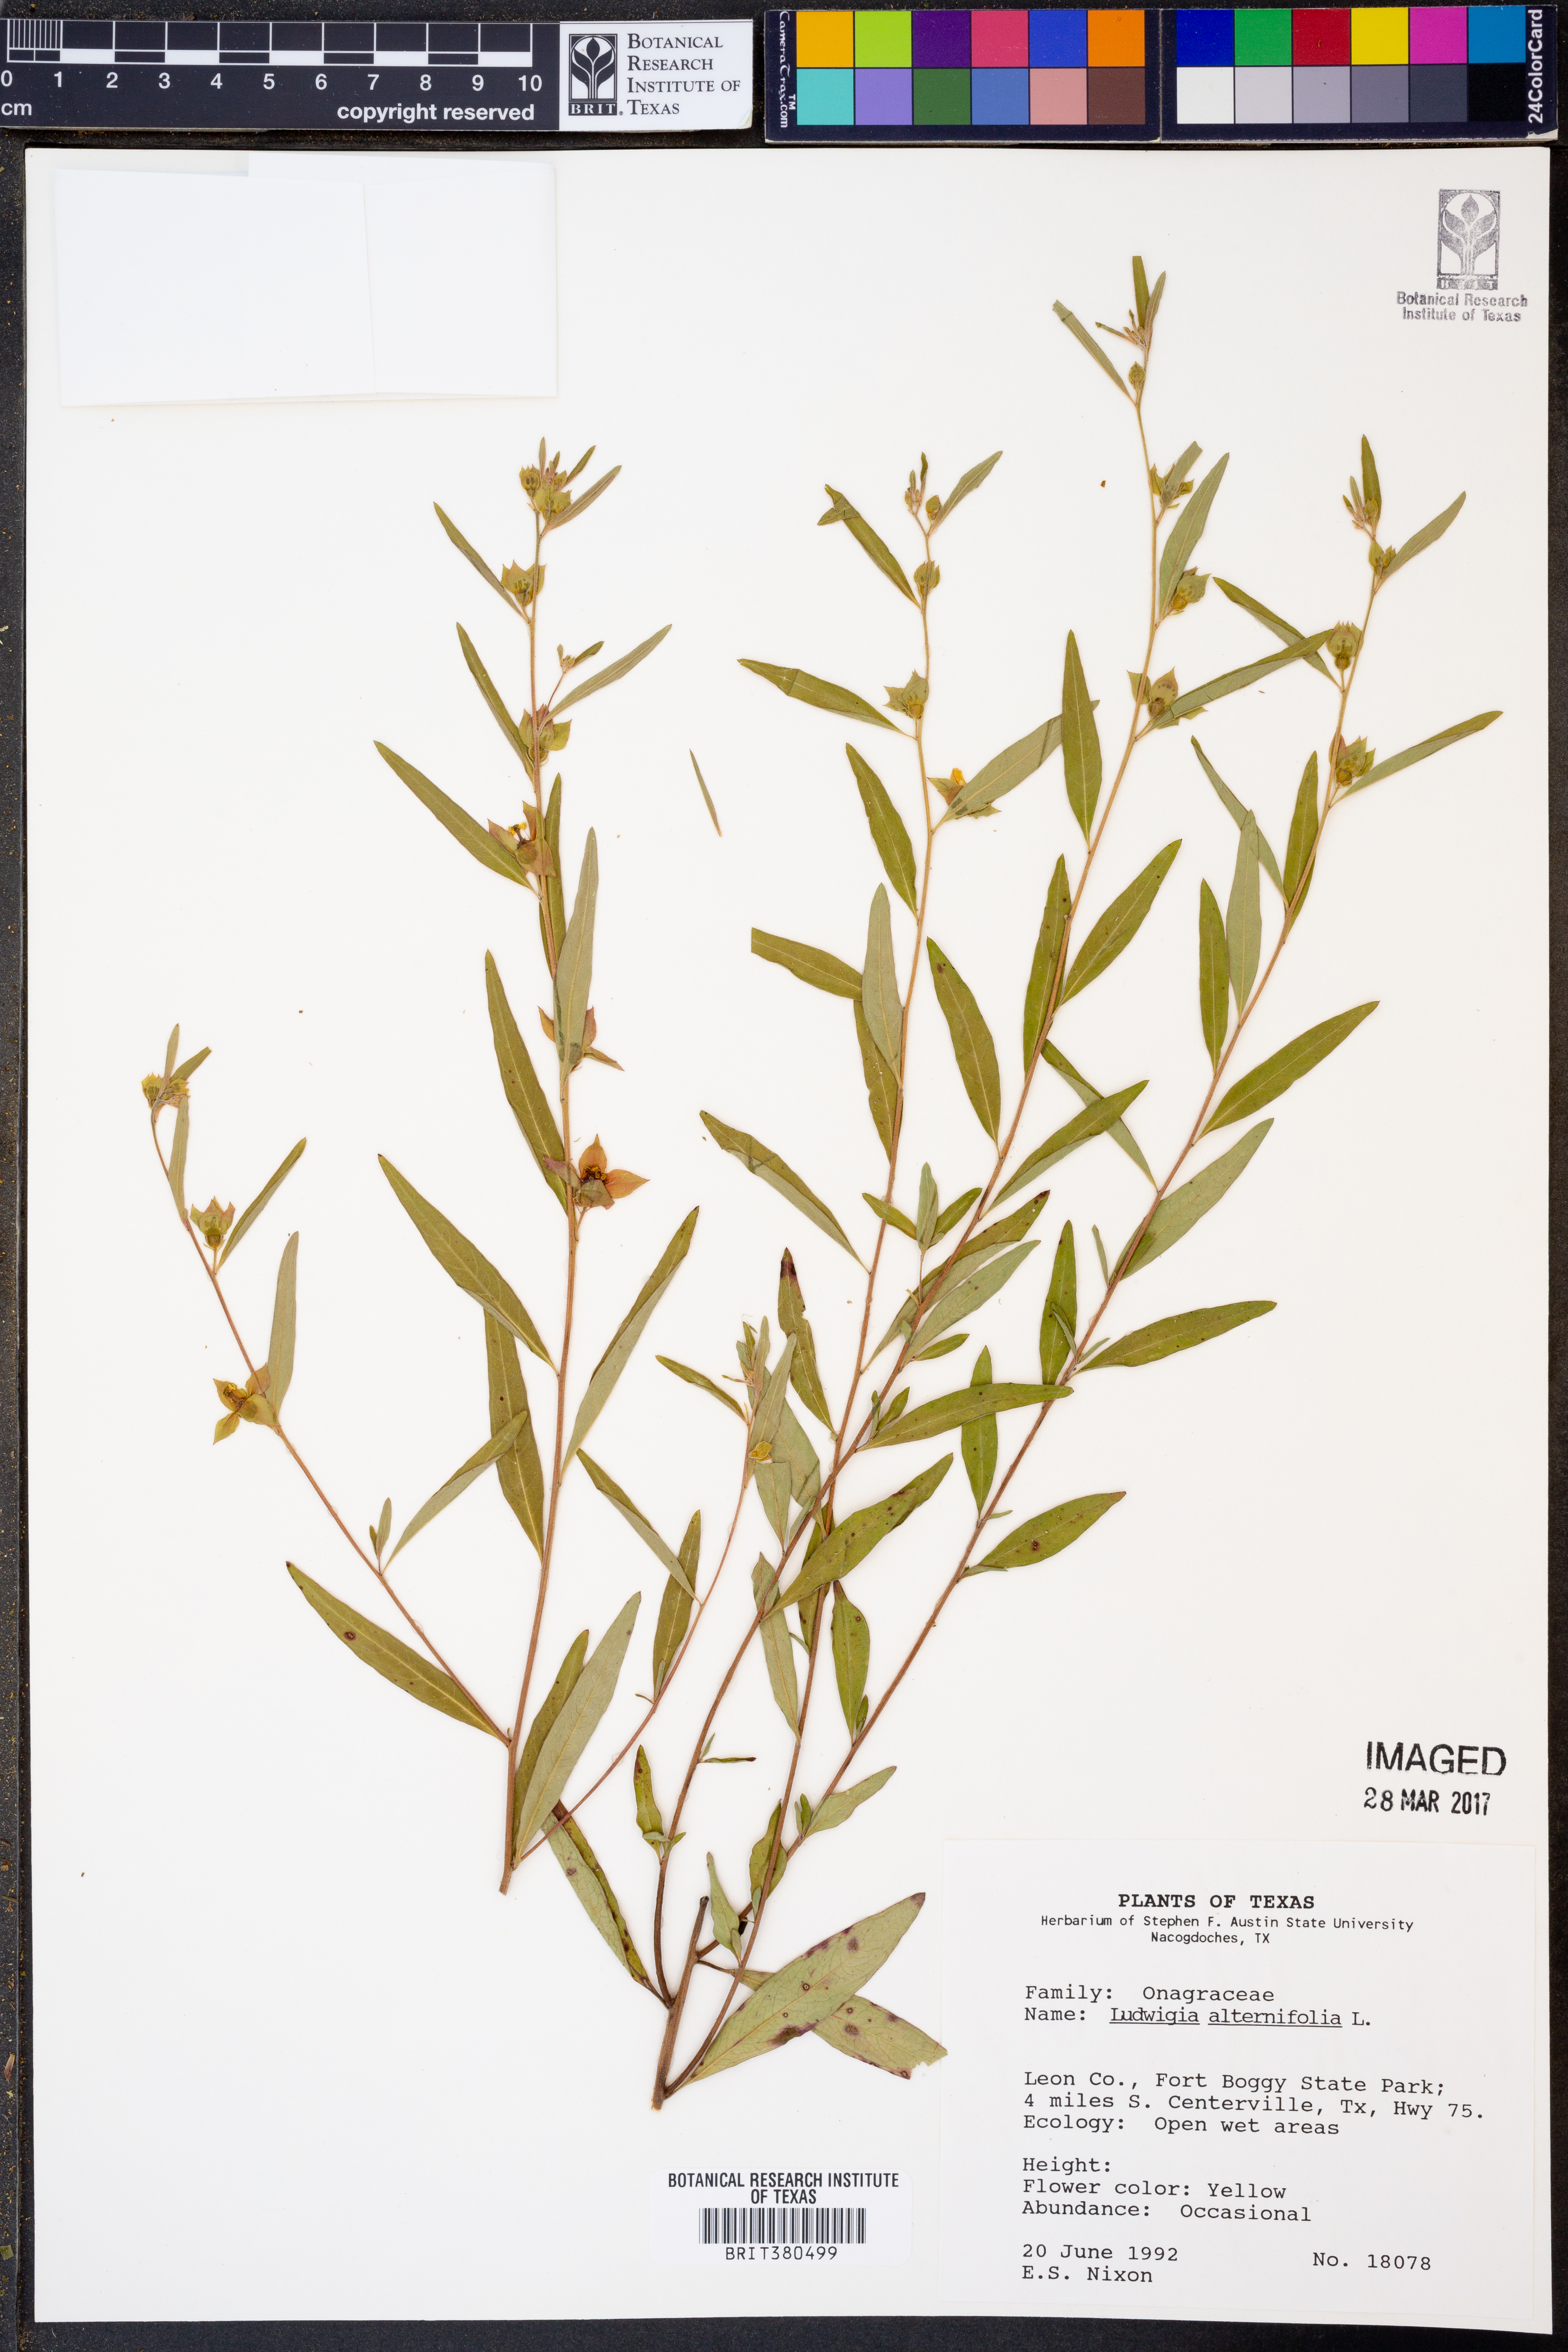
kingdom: Plantae
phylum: Tracheophyta
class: Magnoliopsida
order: Myrtales
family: Onagraceae
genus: Ludwigia
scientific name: Ludwigia alternifolia
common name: Rattlebox
